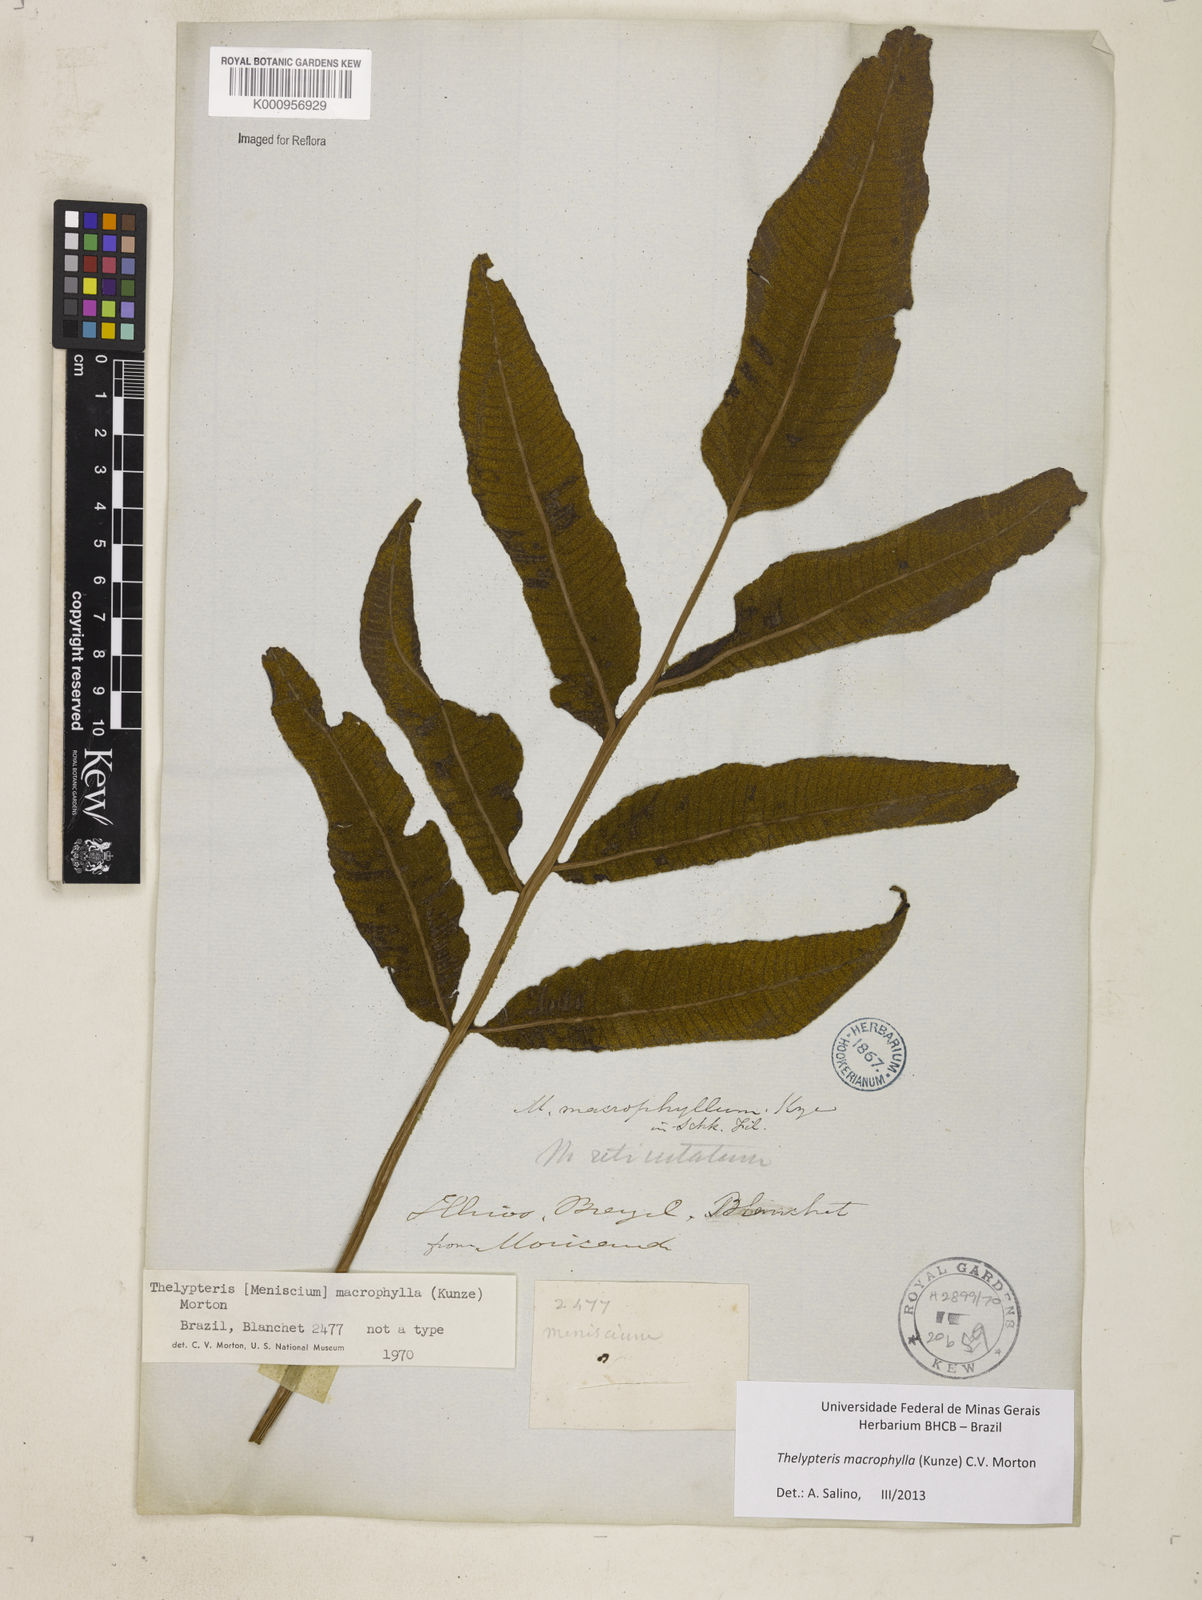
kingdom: Plantae
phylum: Tracheophyta
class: Polypodiopsida
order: Polypodiales
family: Thelypteridaceae
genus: Meniscium
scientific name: Meniscium macrophyllum
